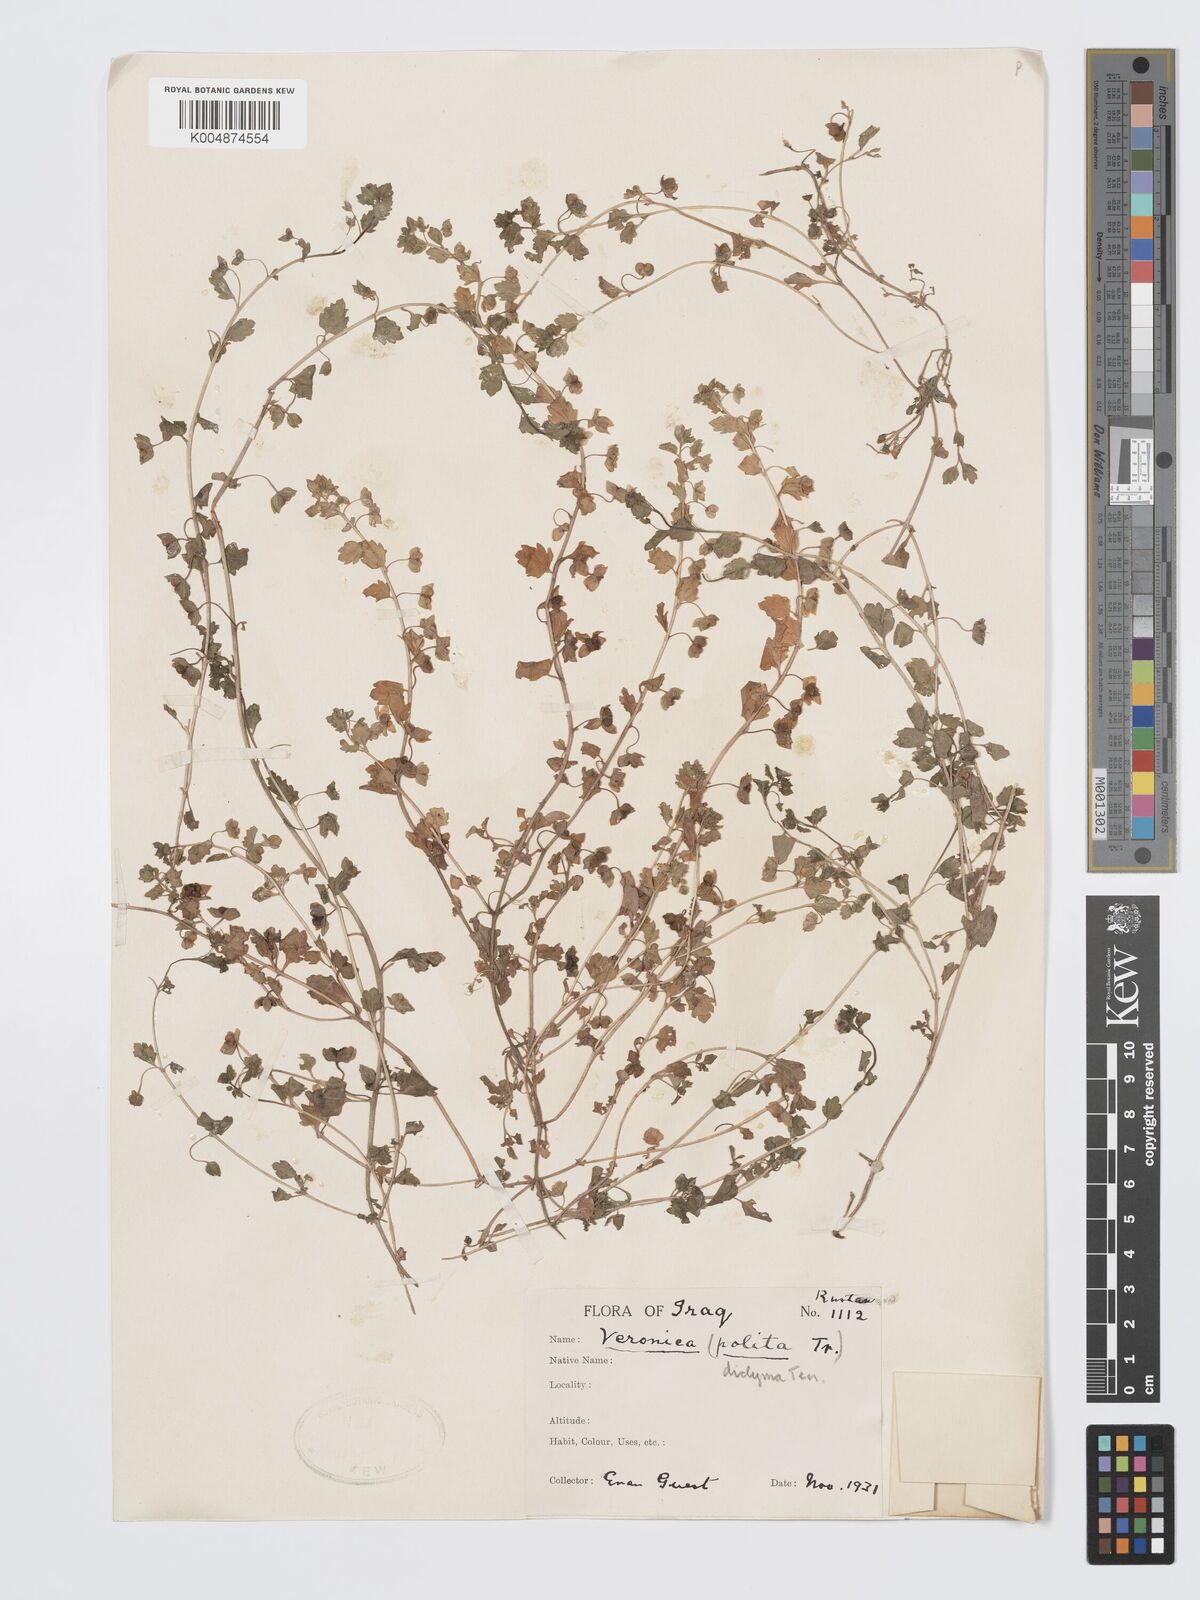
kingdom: Plantae
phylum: Tracheophyta
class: Magnoliopsida
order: Lamiales
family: Plantaginaceae
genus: Veronica
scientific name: Veronica
